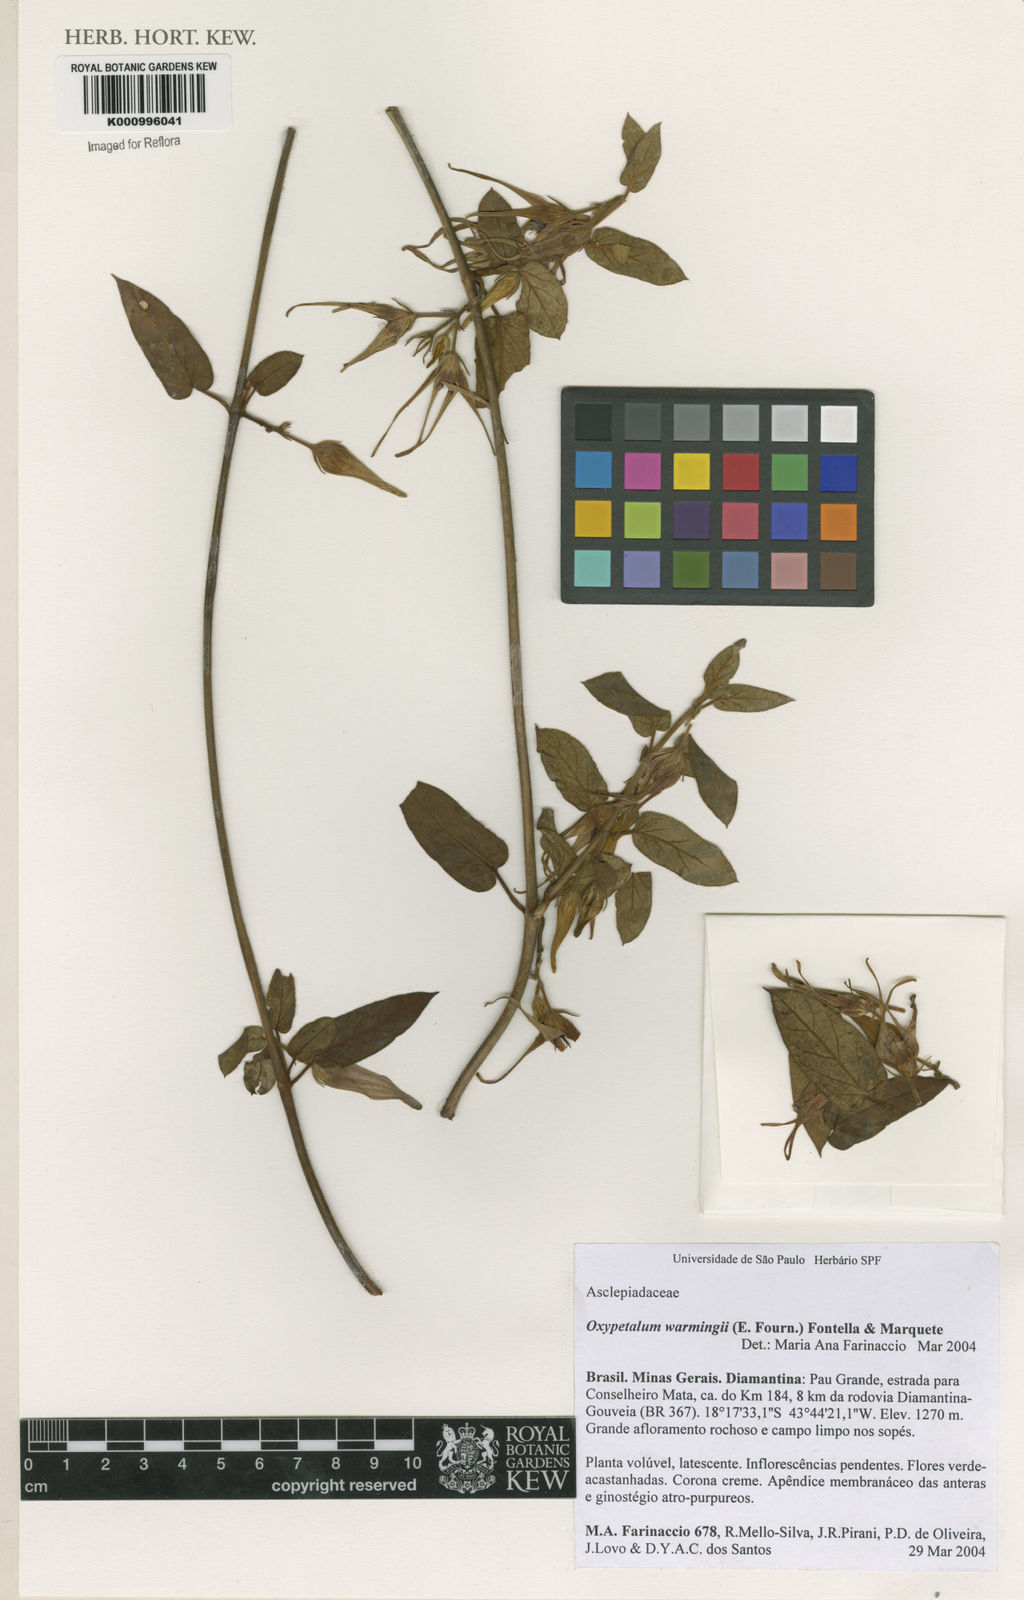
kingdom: Plantae
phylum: Tracheophyta
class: Magnoliopsida
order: Gentianales
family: Apocynaceae
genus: Oxypetalum
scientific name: Oxypetalum warmingii
